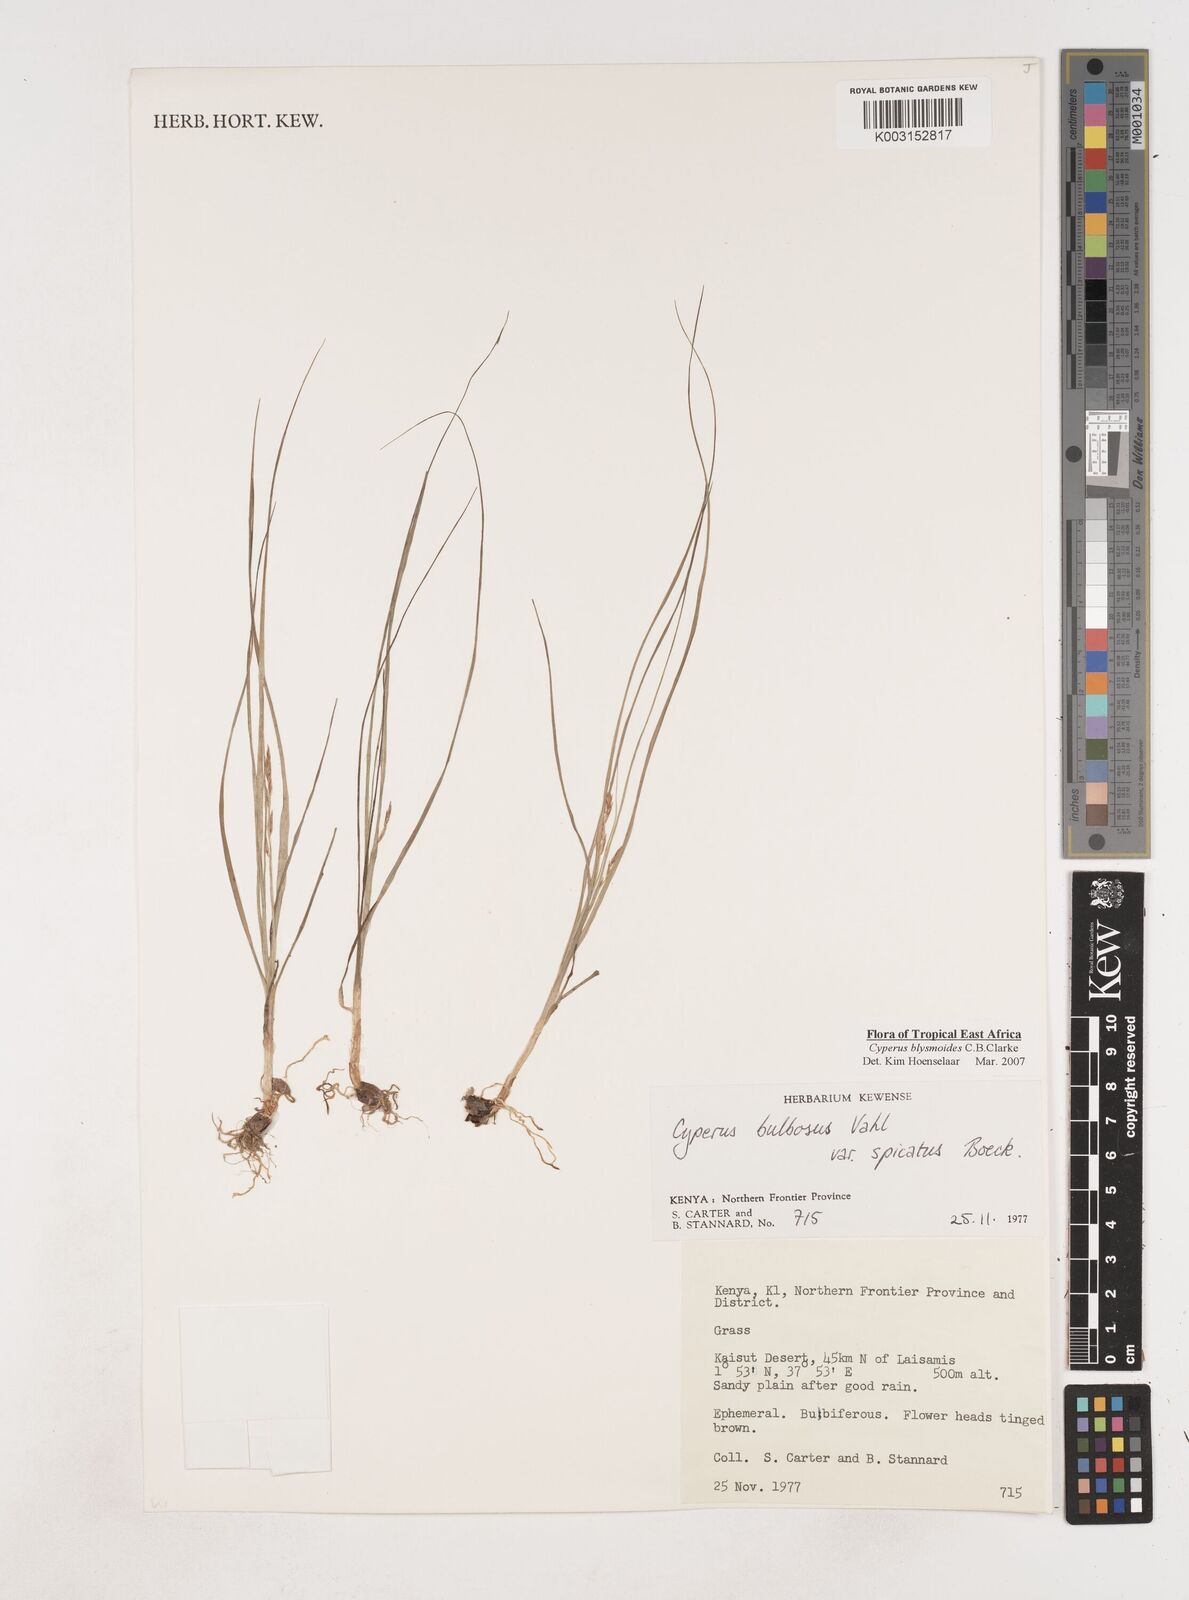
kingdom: Plantae
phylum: Tracheophyta
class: Liliopsida
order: Poales
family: Cyperaceae
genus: Cyperus
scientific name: Cyperus blysmoides
